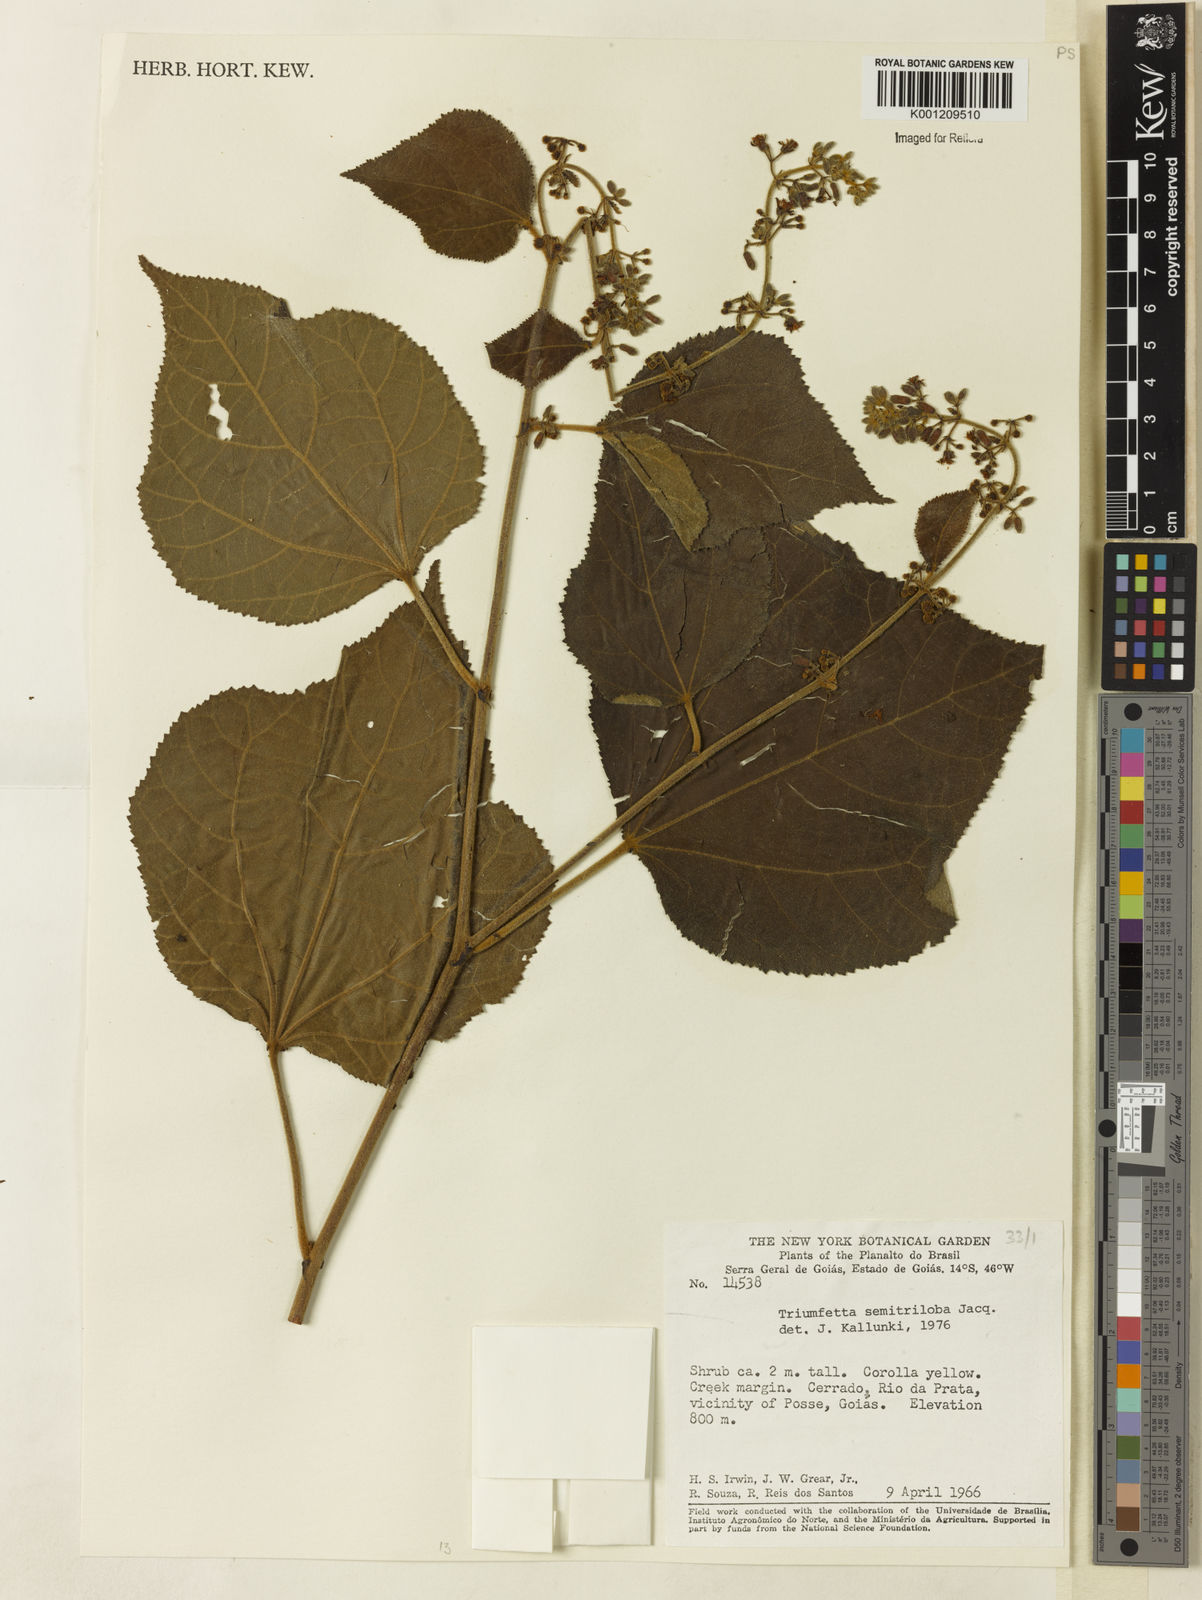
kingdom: Plantae
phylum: Tracheophyta
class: Magnoliopsida
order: Malvales
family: Malvaceae
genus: Triumfetta
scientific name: Triumfetta semitriloba
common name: Sacramento burbark
